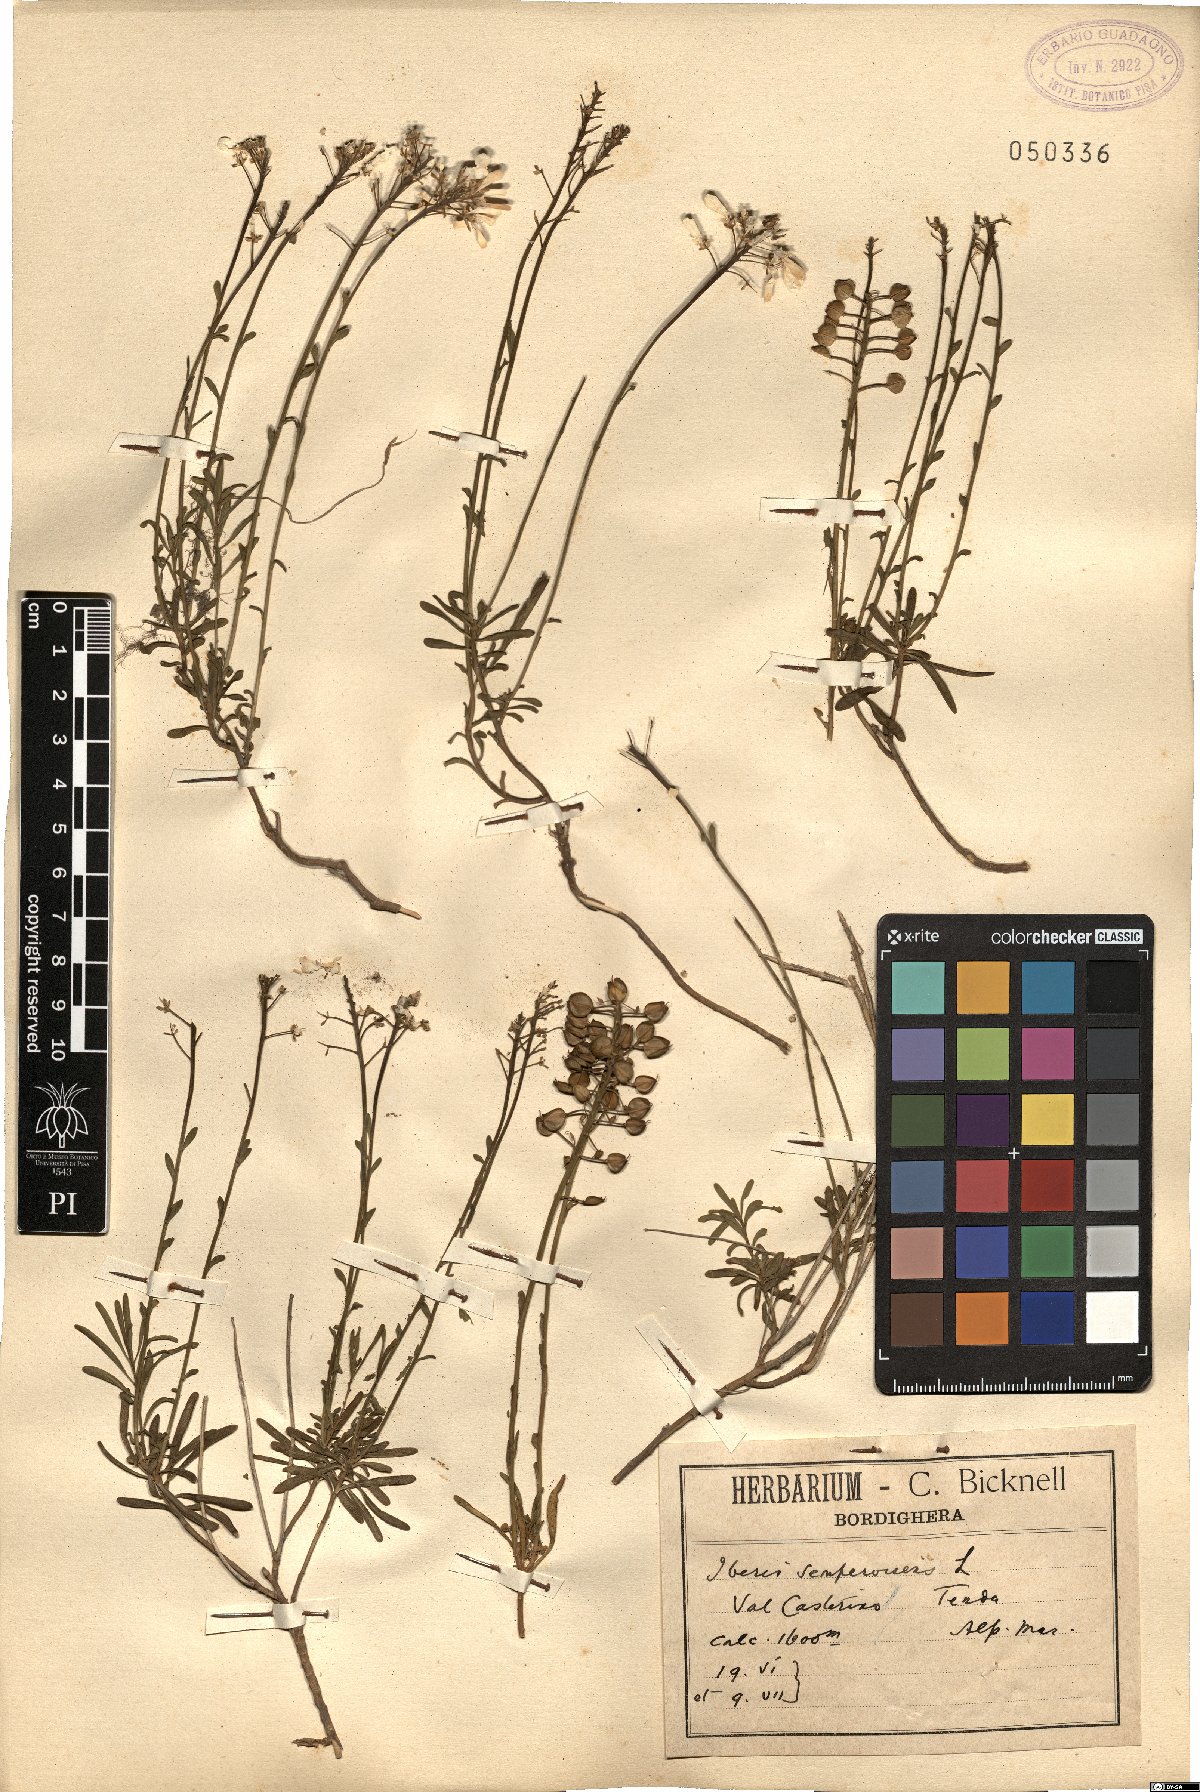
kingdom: Plantae
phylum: Tracheophyta
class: Magnoliopsida
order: Brassicales
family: Brassicaceae
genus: Iberis
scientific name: Iberis sempervirens
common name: Evergreen candytuft
